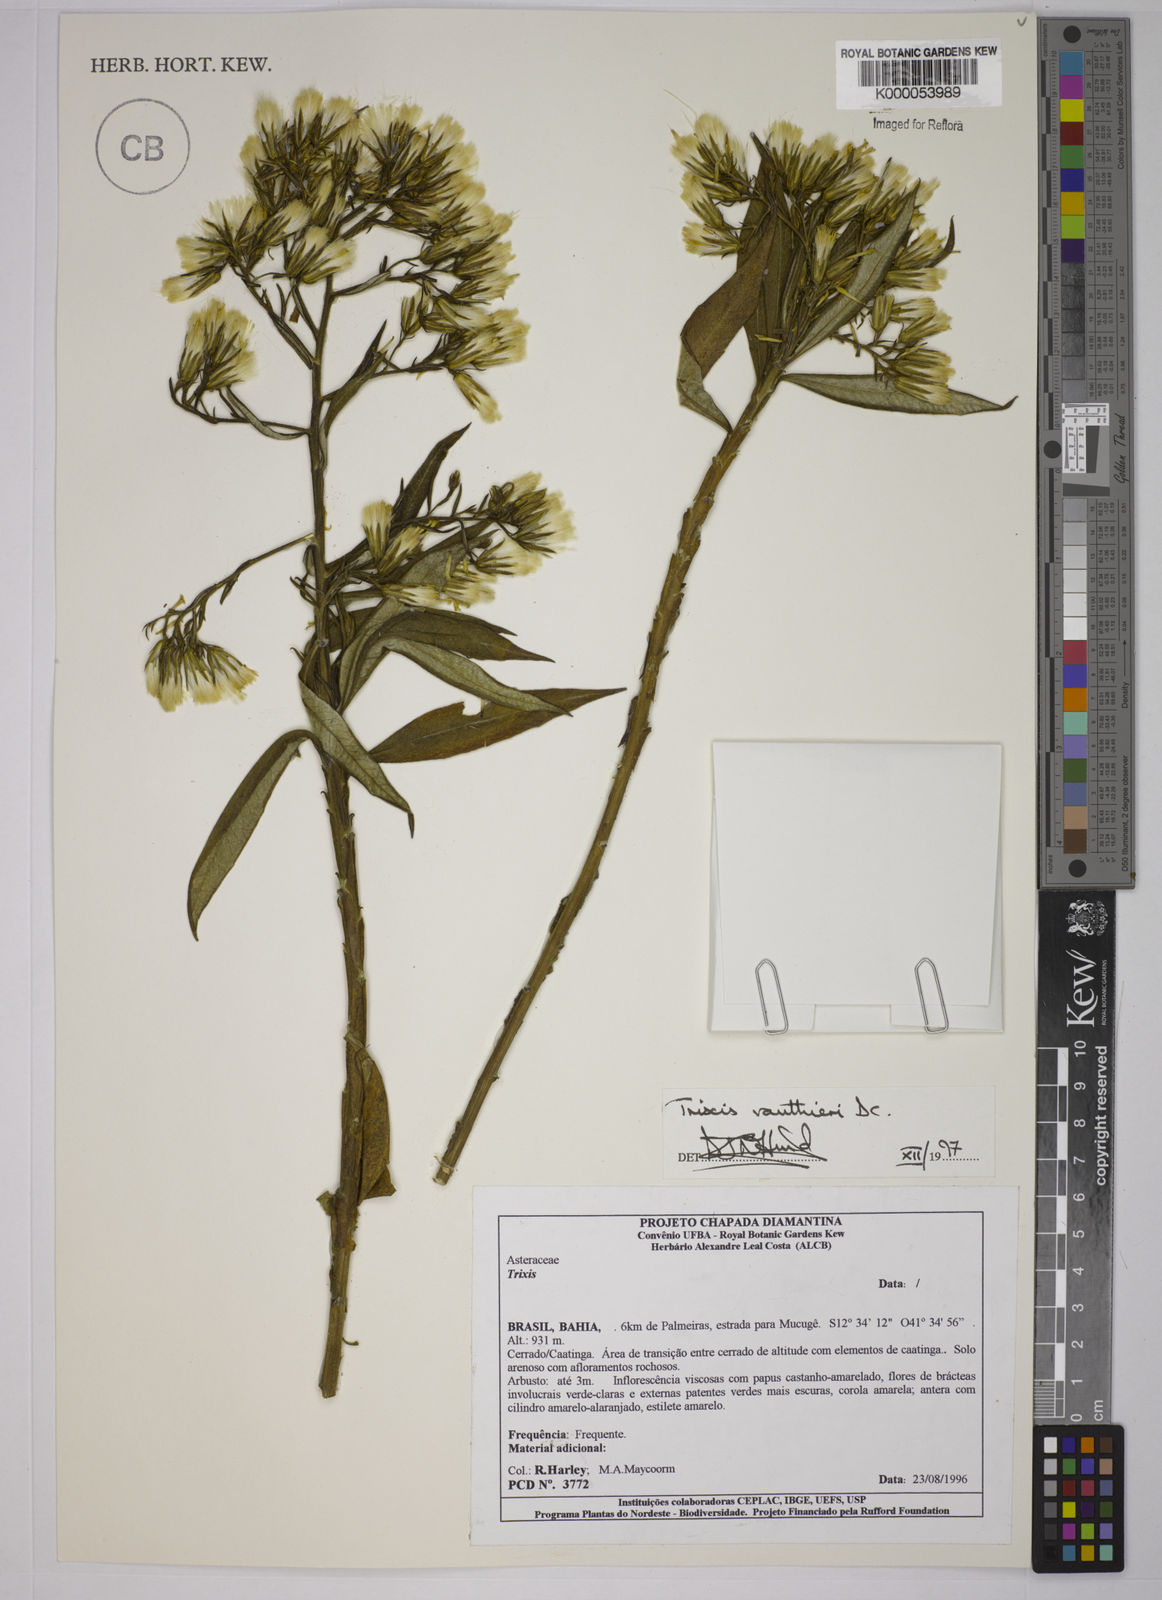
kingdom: Plantae
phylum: Tracheophyta
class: Magnoliopsida
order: Asterales
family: Asteraceae
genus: Trixis
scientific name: Trixis vauthieri
